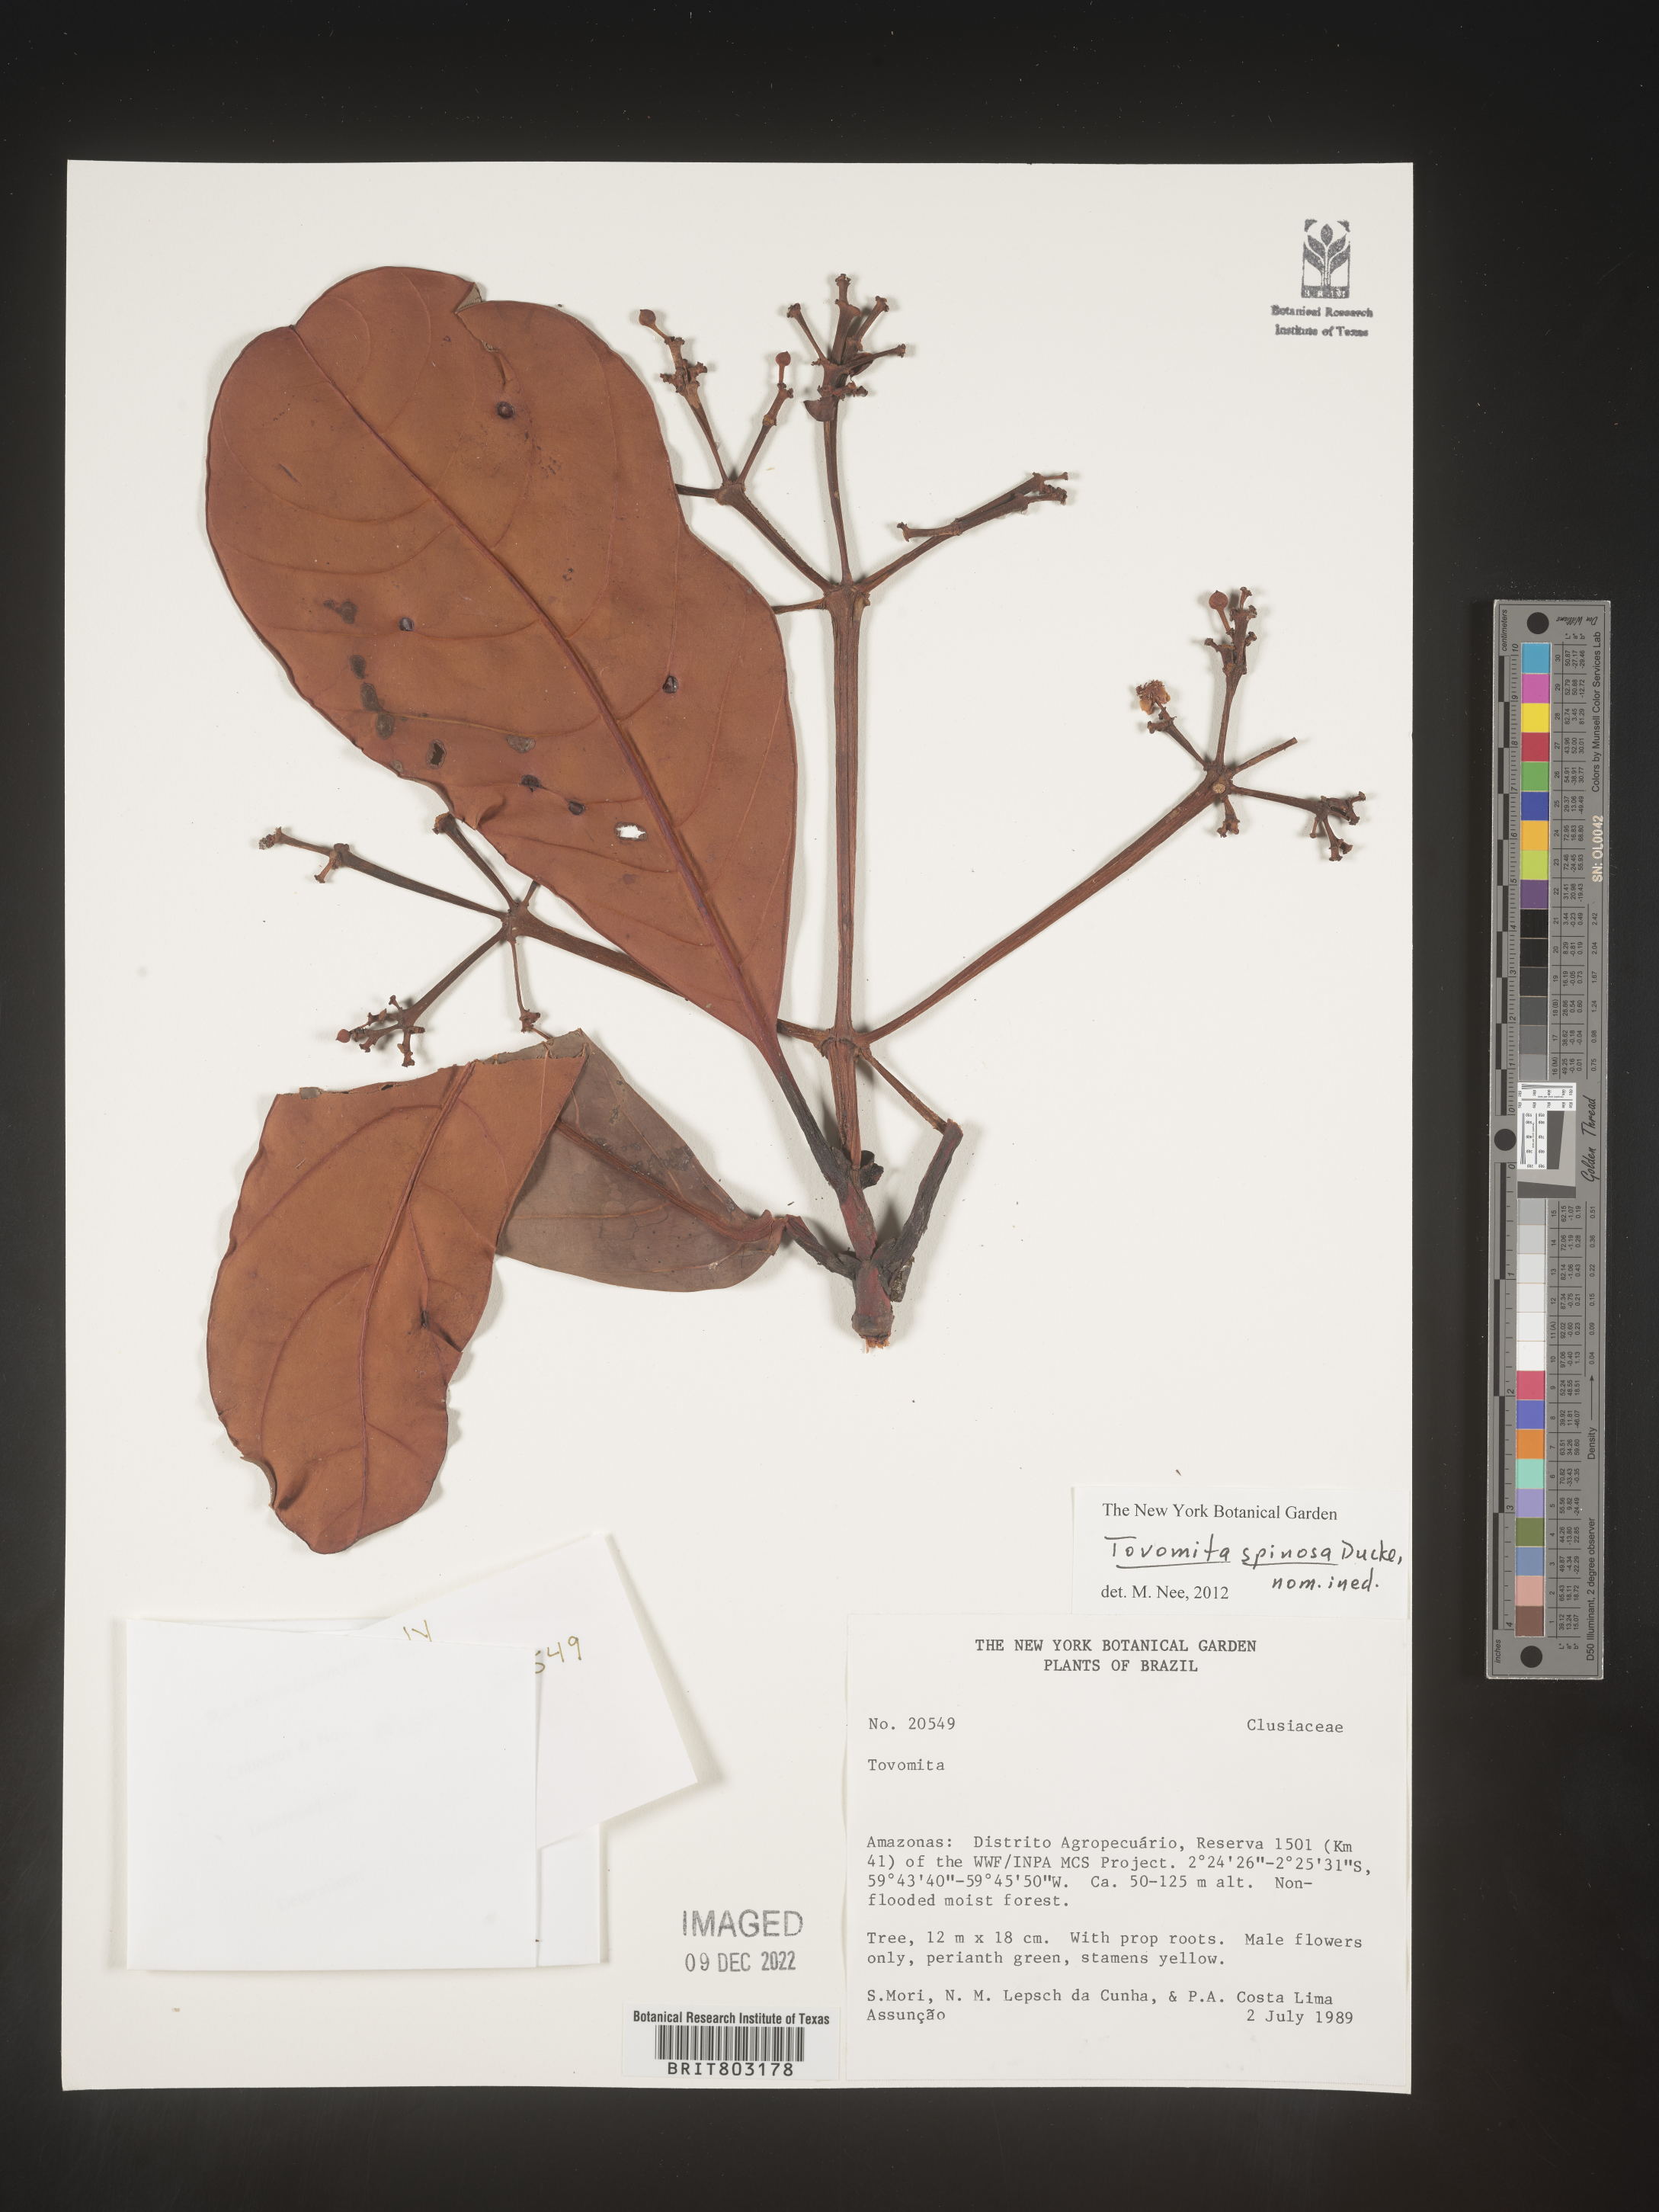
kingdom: Plantae
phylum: Tracheophyta
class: Magnoliopsida
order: Malpighiales
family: Clusiaceae
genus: Tovomita
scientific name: Tovomita
